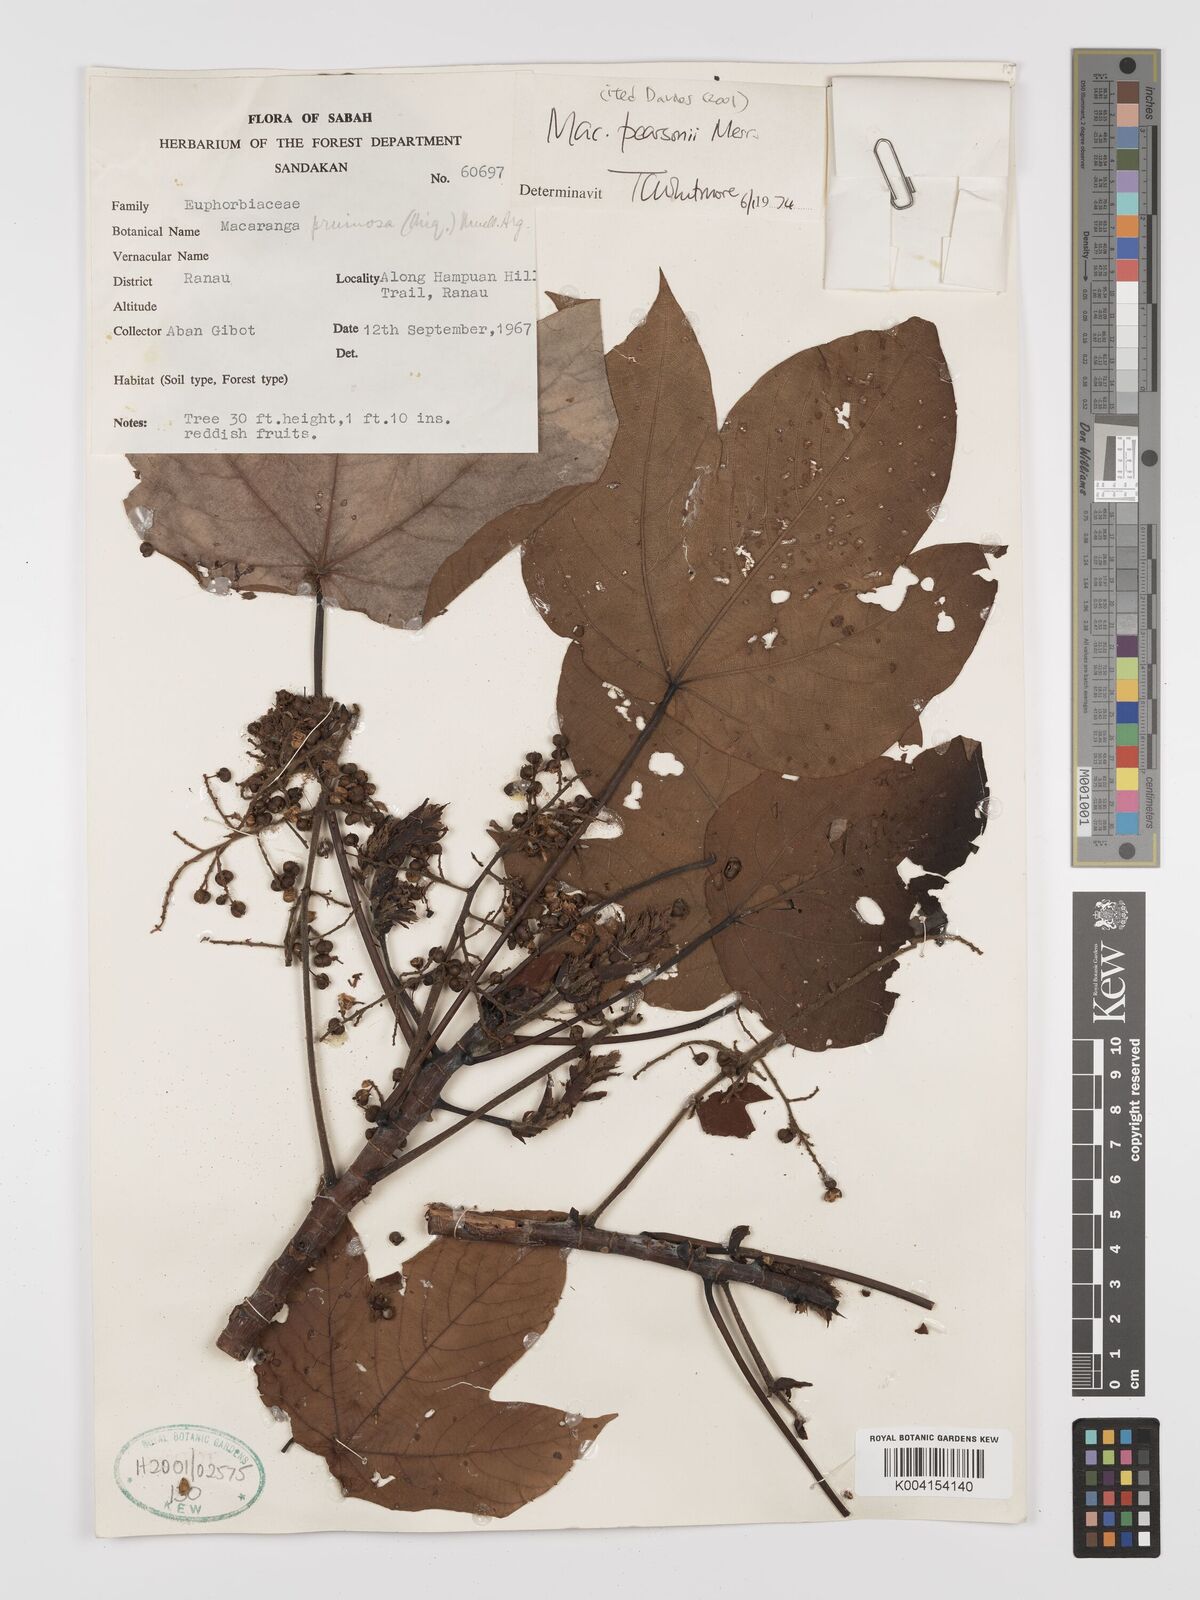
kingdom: Plantae
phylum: Tracheophyta
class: Magnoliopsida
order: Malpighiales
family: Euphorbiaceae
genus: Macaranga
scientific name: Macaranga pearsonii
